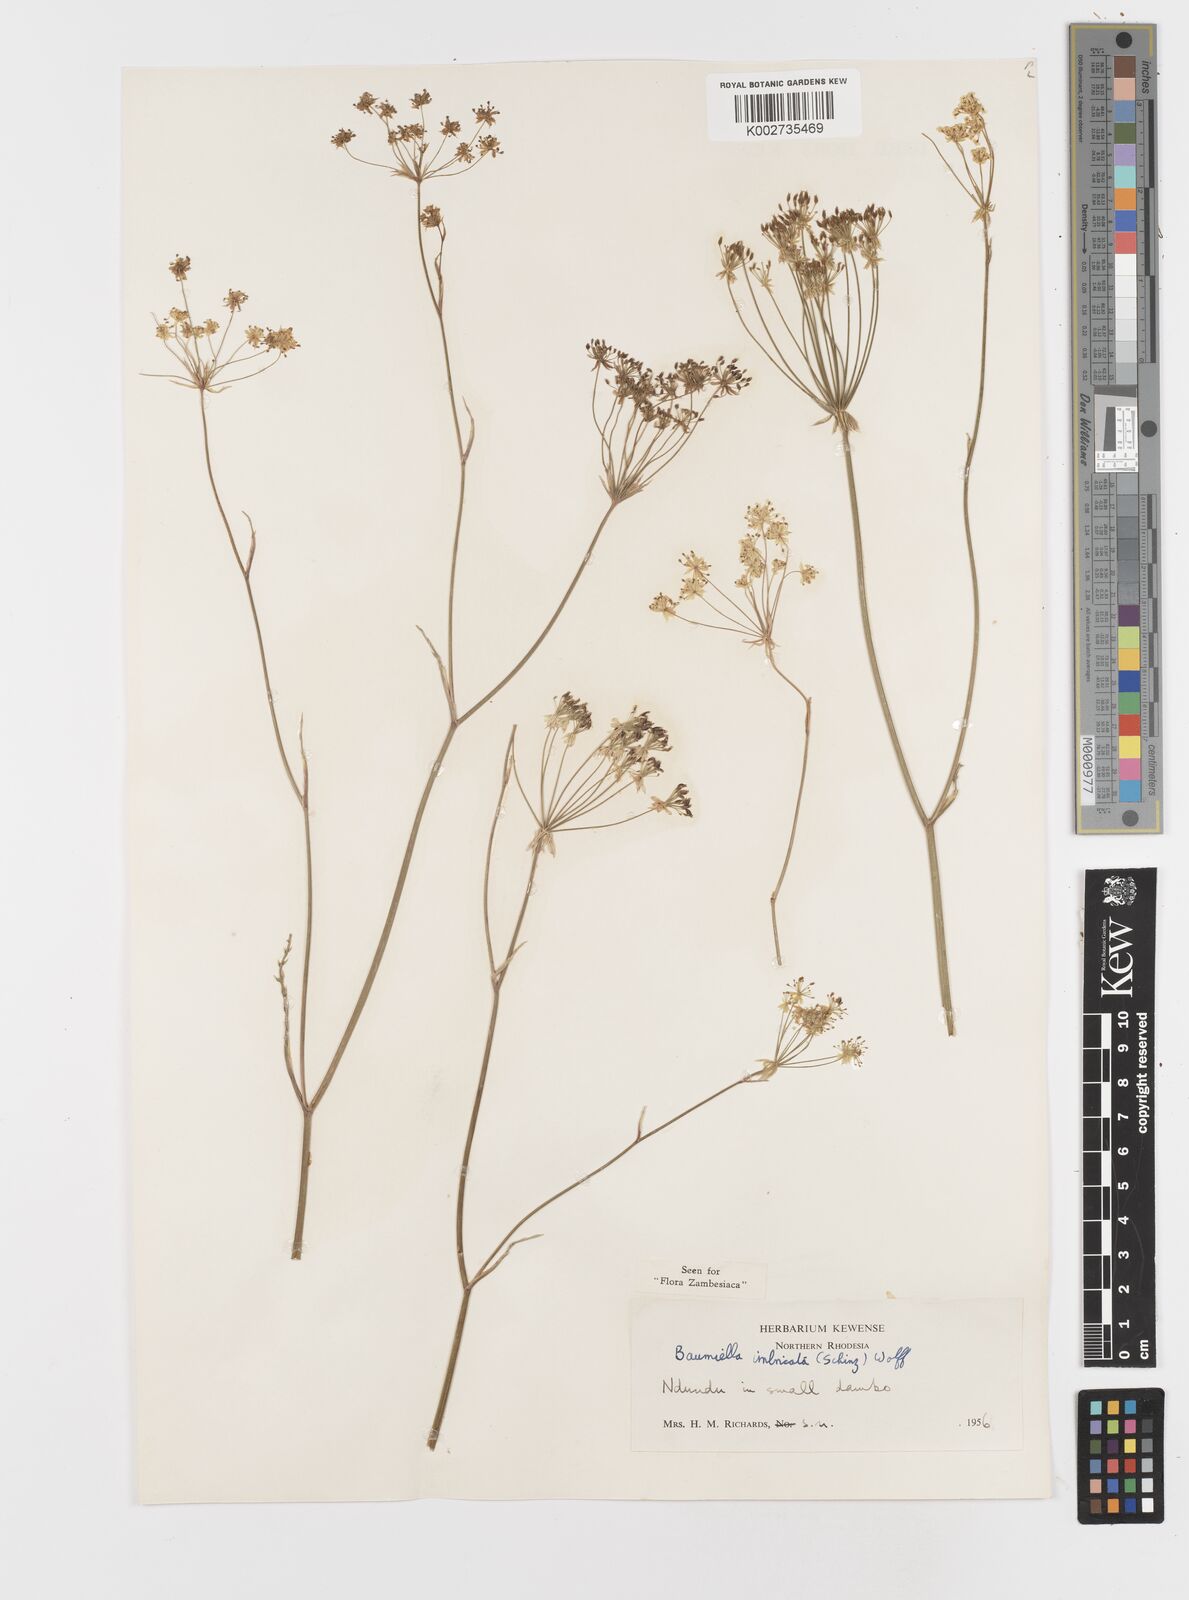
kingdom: Plantae
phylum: Tracheophyta
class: Magnoliopsida
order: Apiales
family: Apiaceae
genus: Berula
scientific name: Berula imbricata
